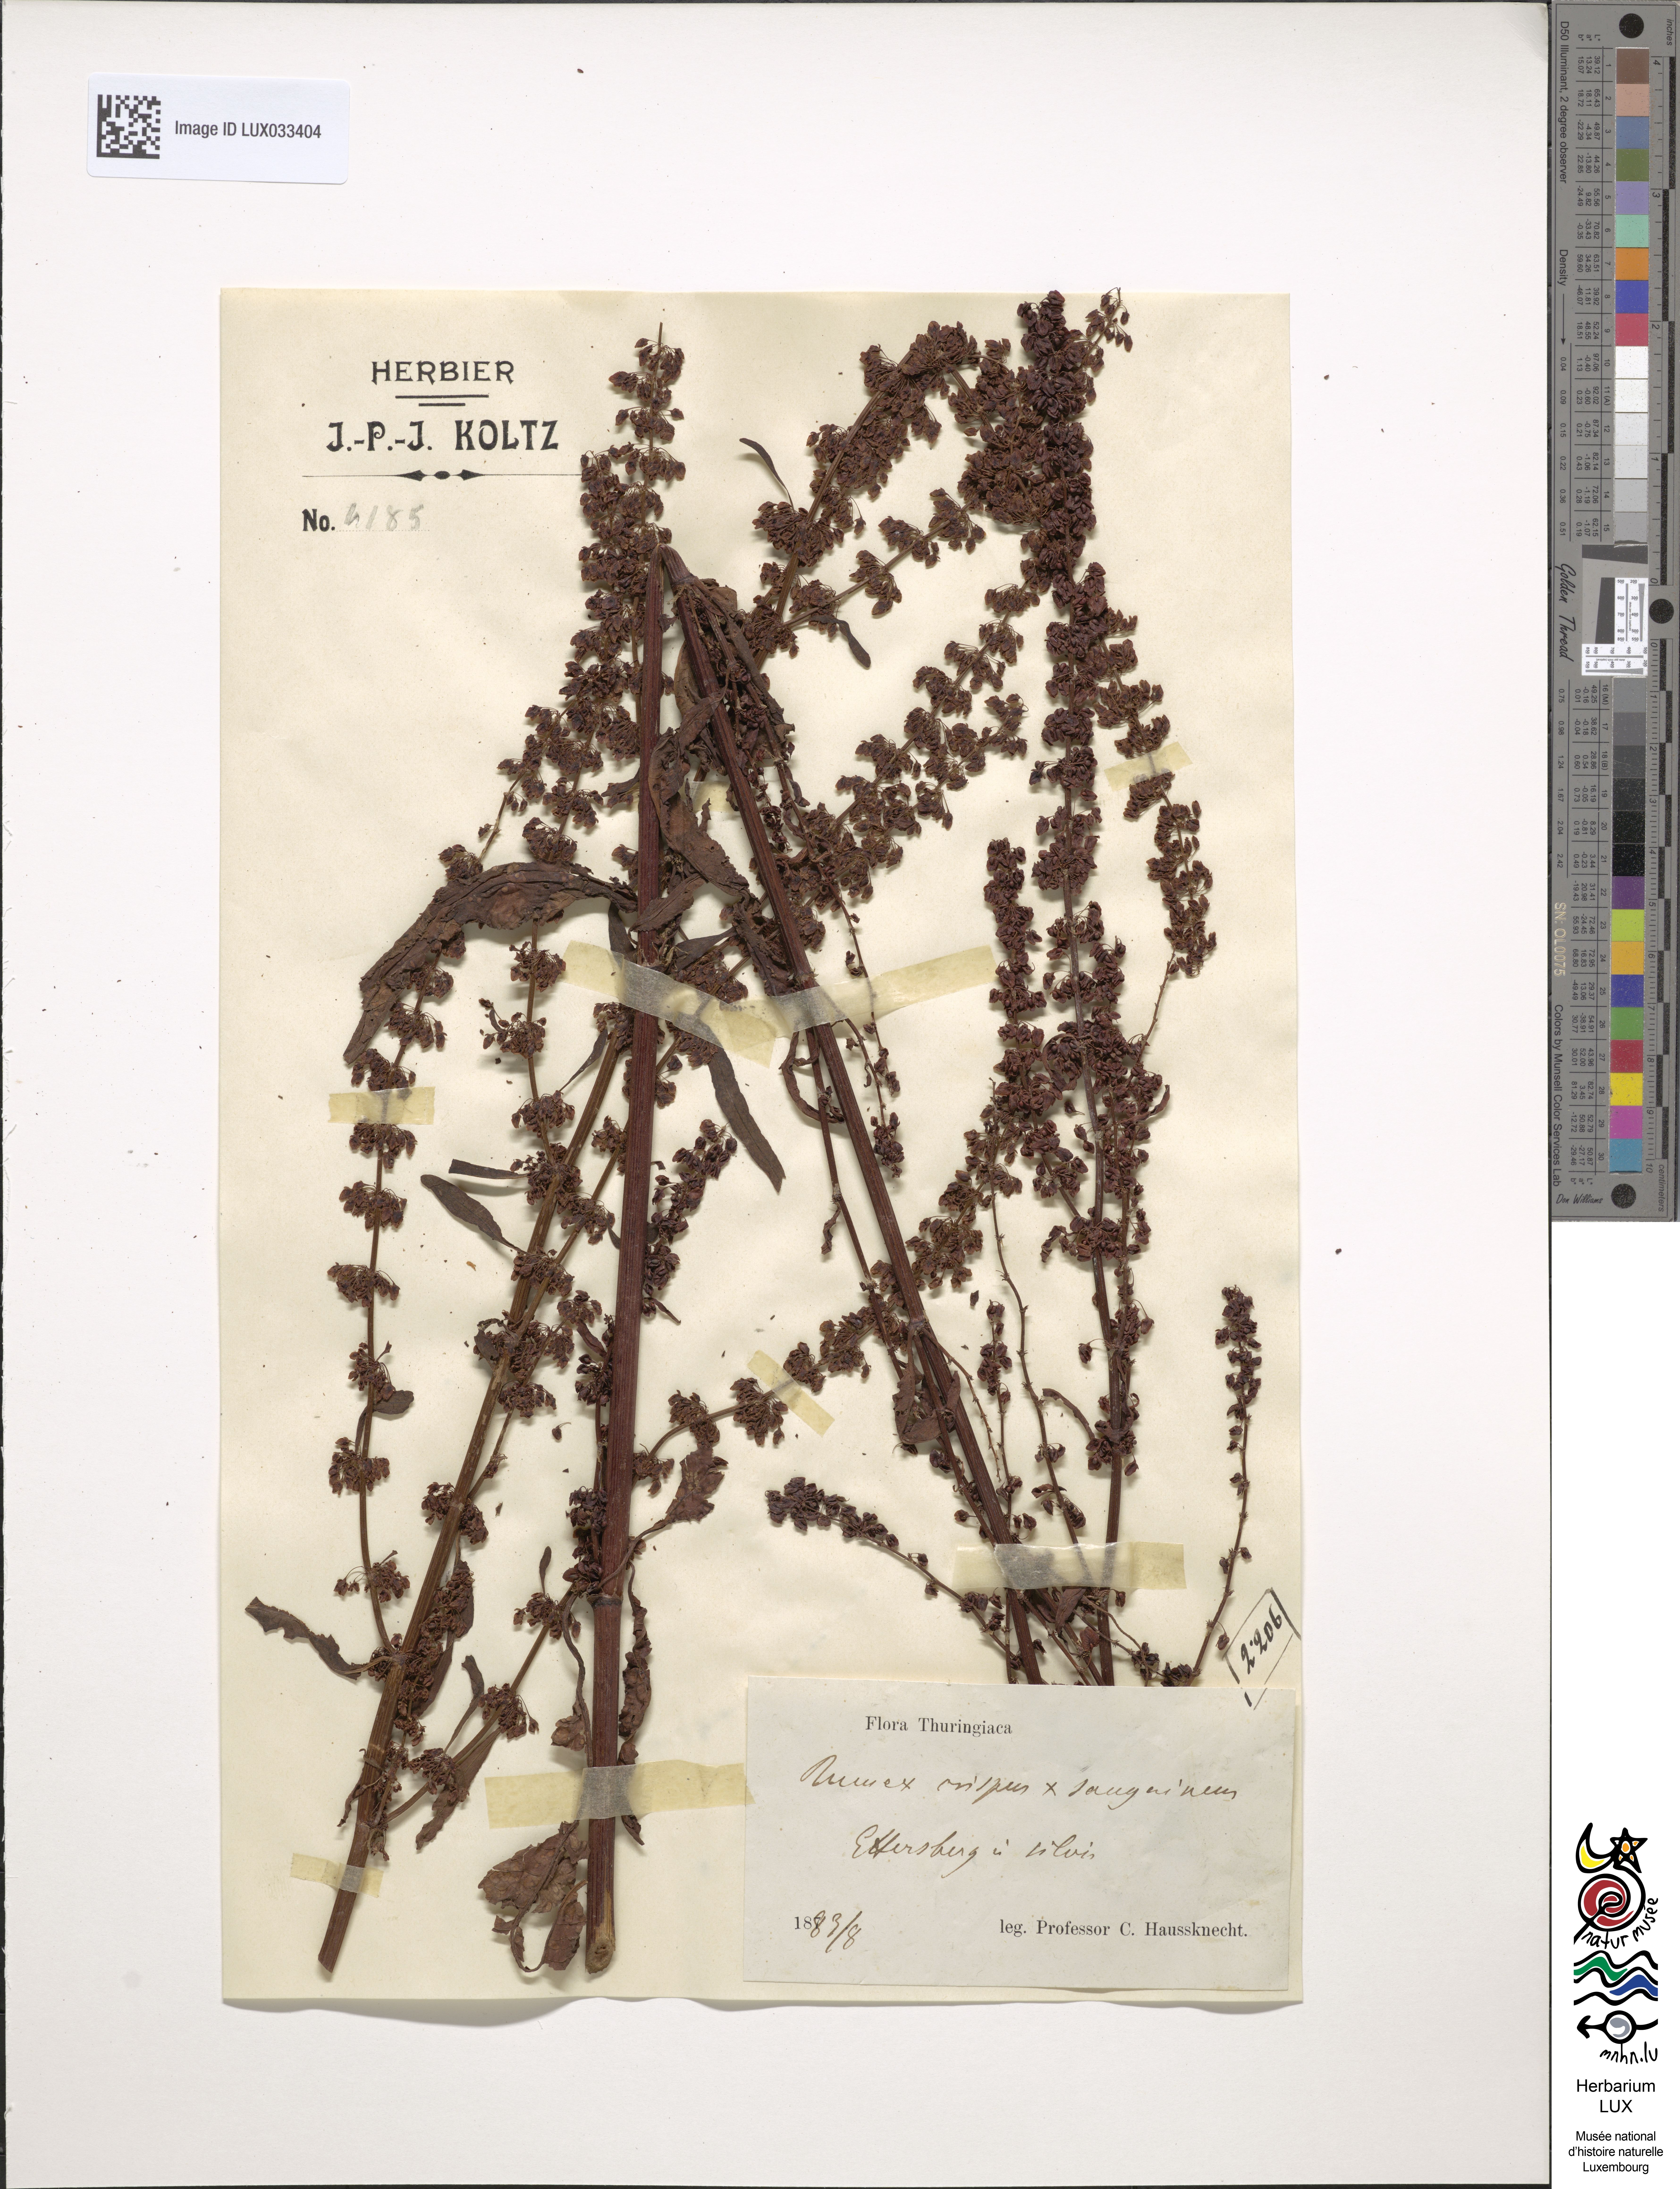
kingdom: Plantae
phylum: Tracheophyta
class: Magnoliopsida
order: Caryophyllales
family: Polygonaceae
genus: Rumex
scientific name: Rumex
